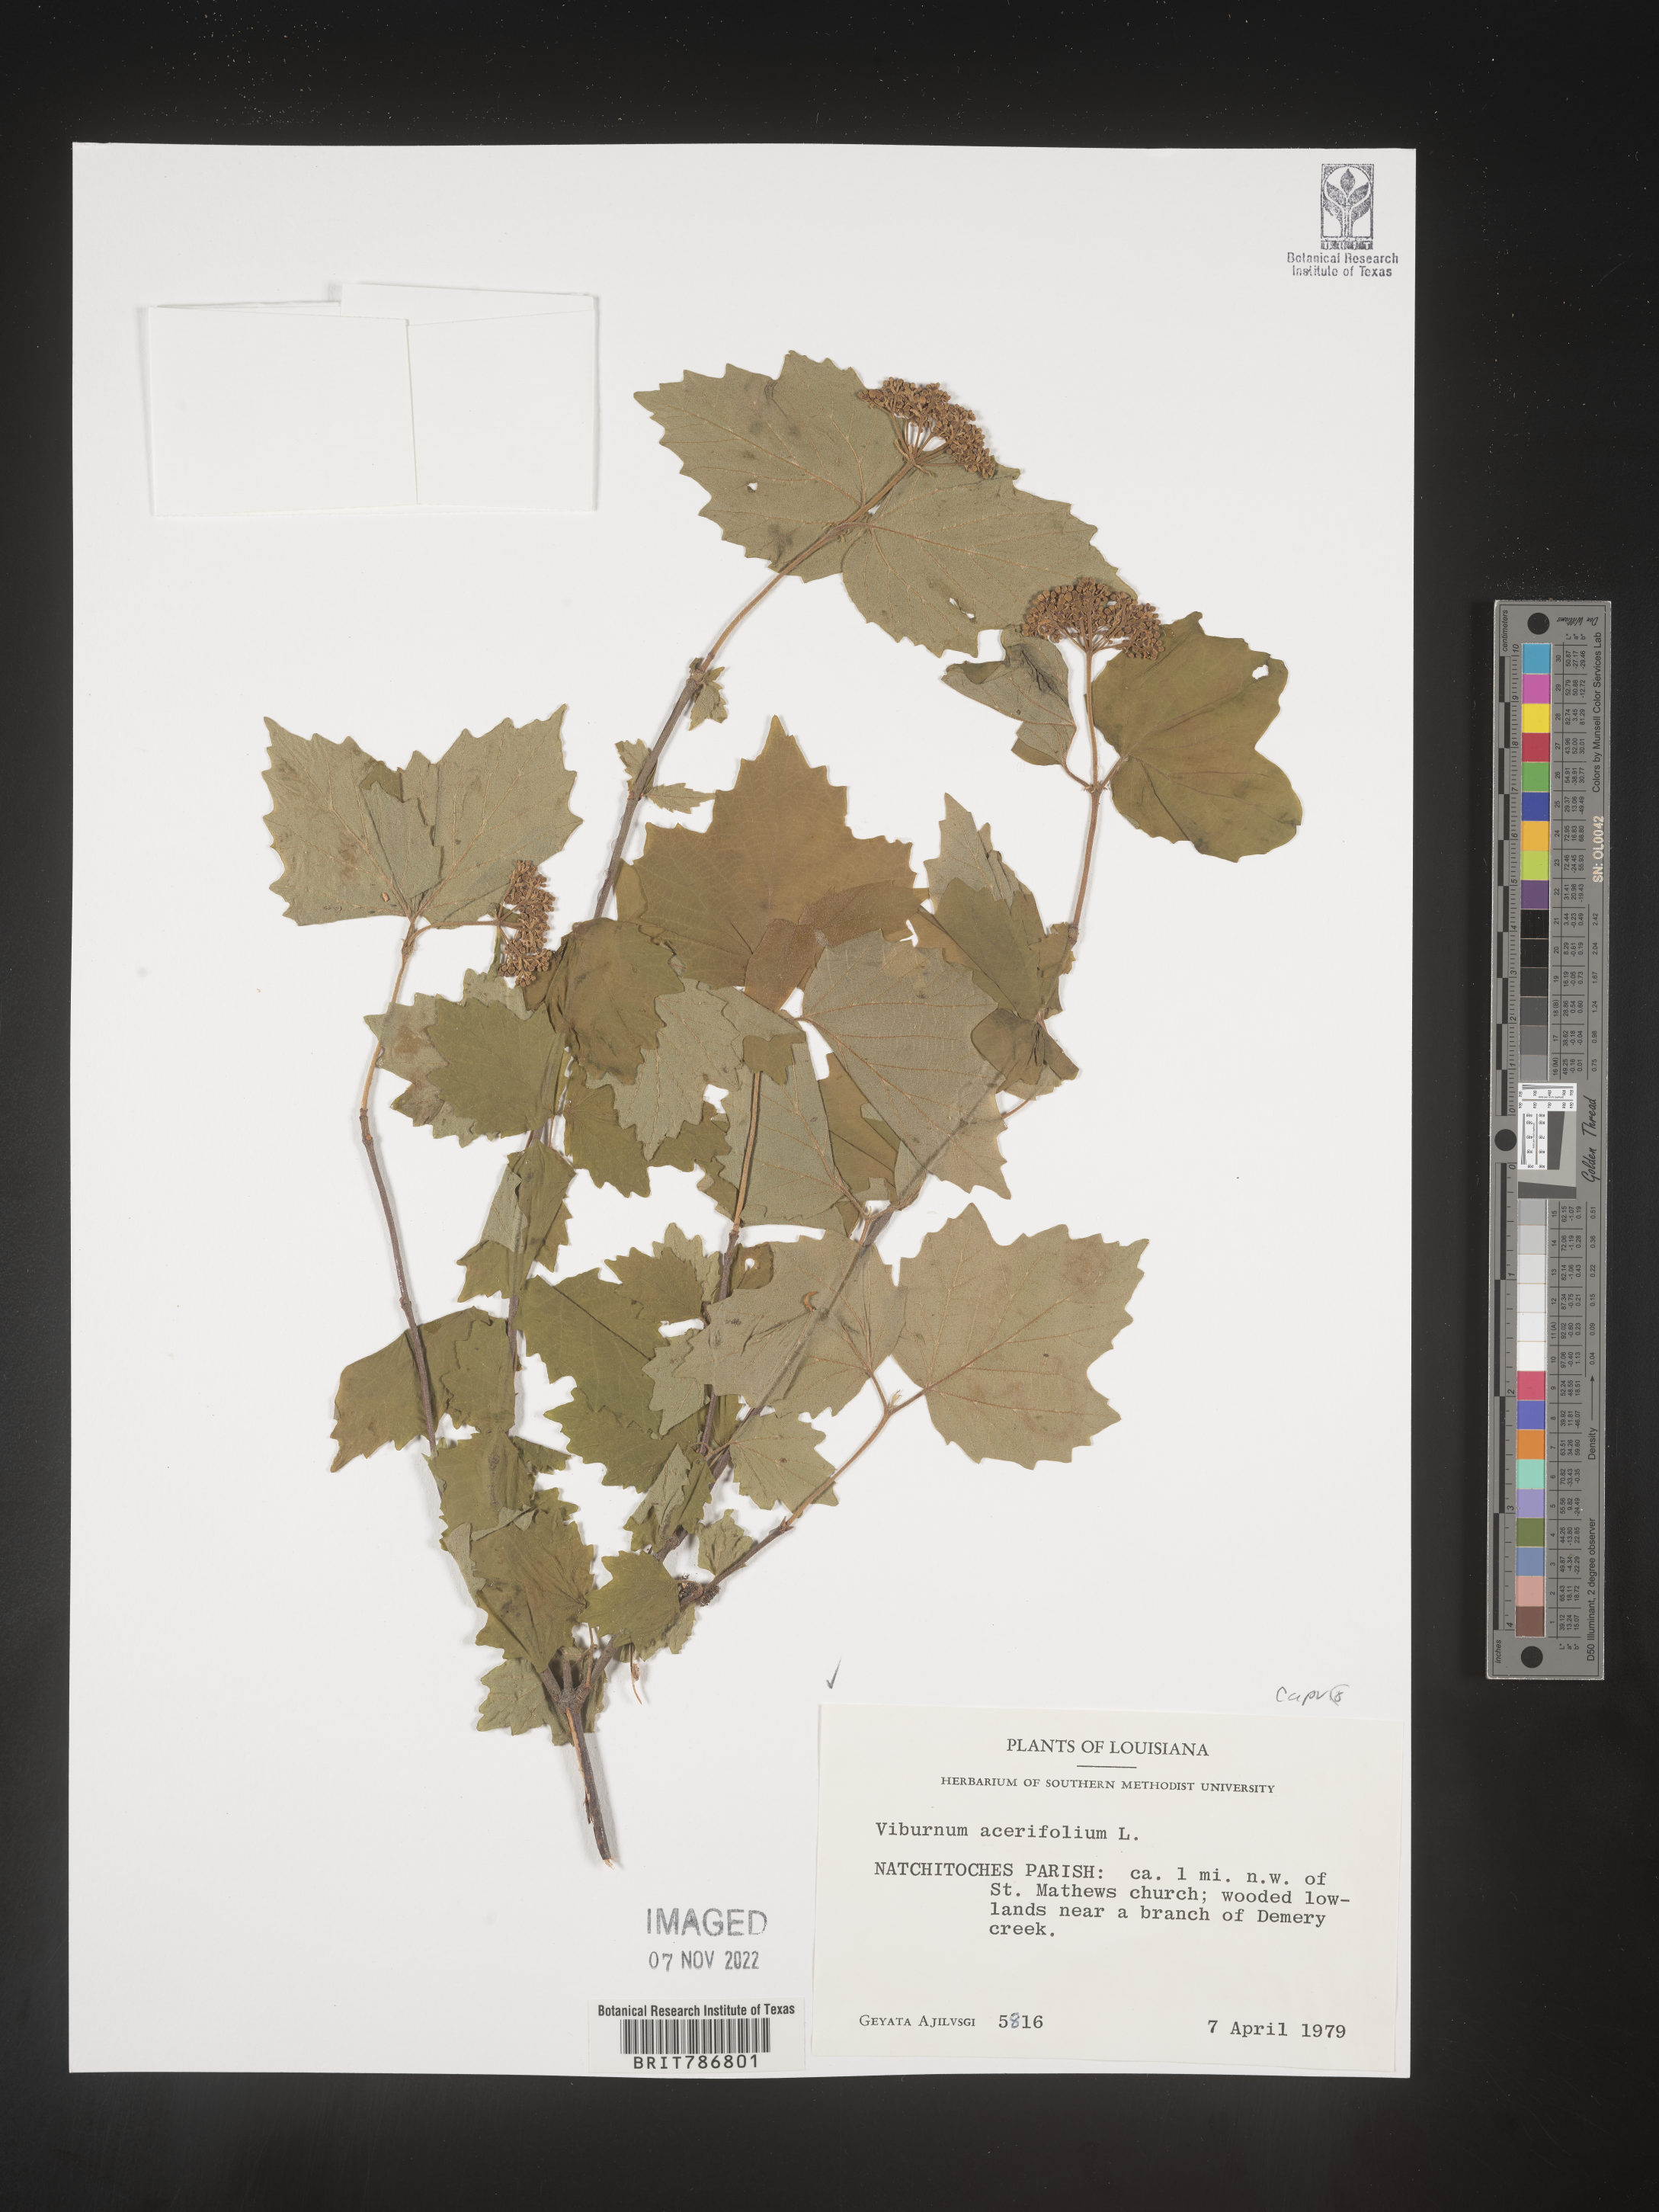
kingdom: Plantae
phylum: Tracheophyta
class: Magnoliopsida
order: Dipsacales
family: Viburnaceae
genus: Viburnum
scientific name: Viburnum acerifolium
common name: Dockmackie
